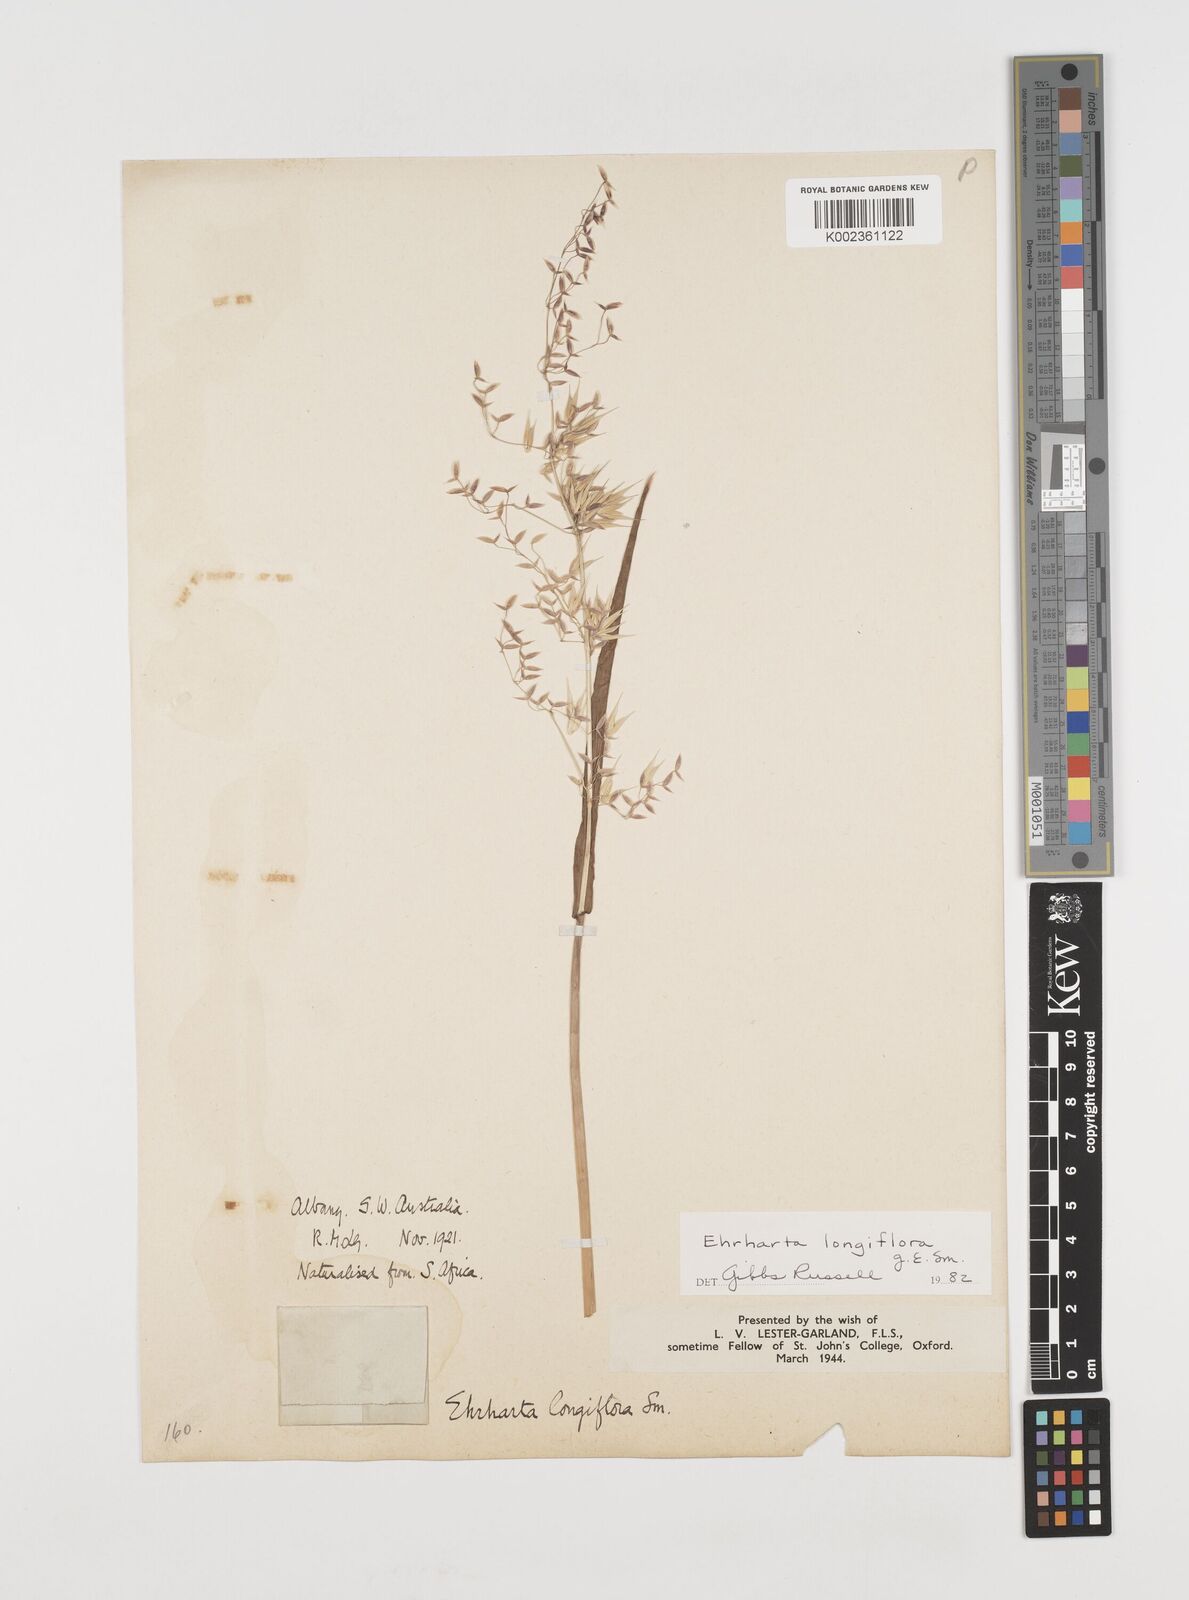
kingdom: Plantae
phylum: Tracheophyta
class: Liliopsida
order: Poales
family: Poaceae
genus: Ehrharta
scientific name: Ehrharta longiflora
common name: Longflowered veldtgrass
